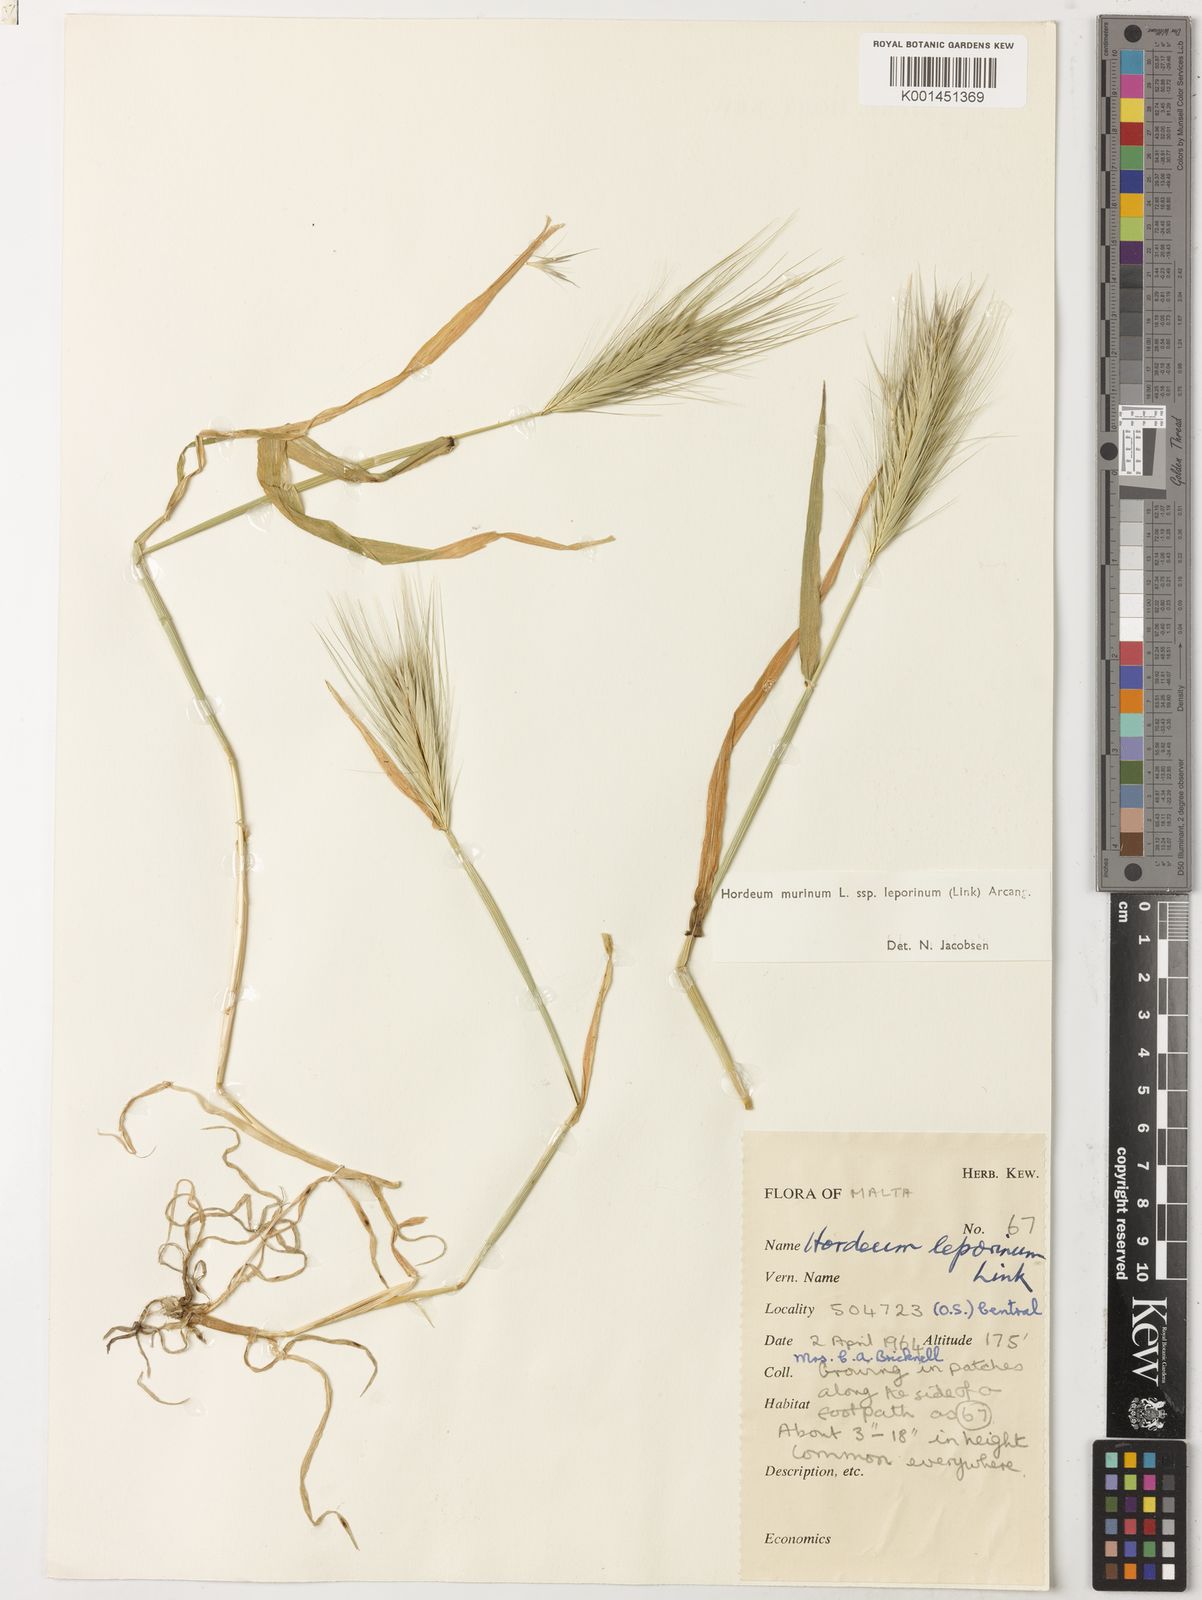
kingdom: Plantae
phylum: Tracheophyta
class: Liliopsida
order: Poales
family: Poaceae
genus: Hordeum
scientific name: Hordeum murinum
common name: Wall barley
